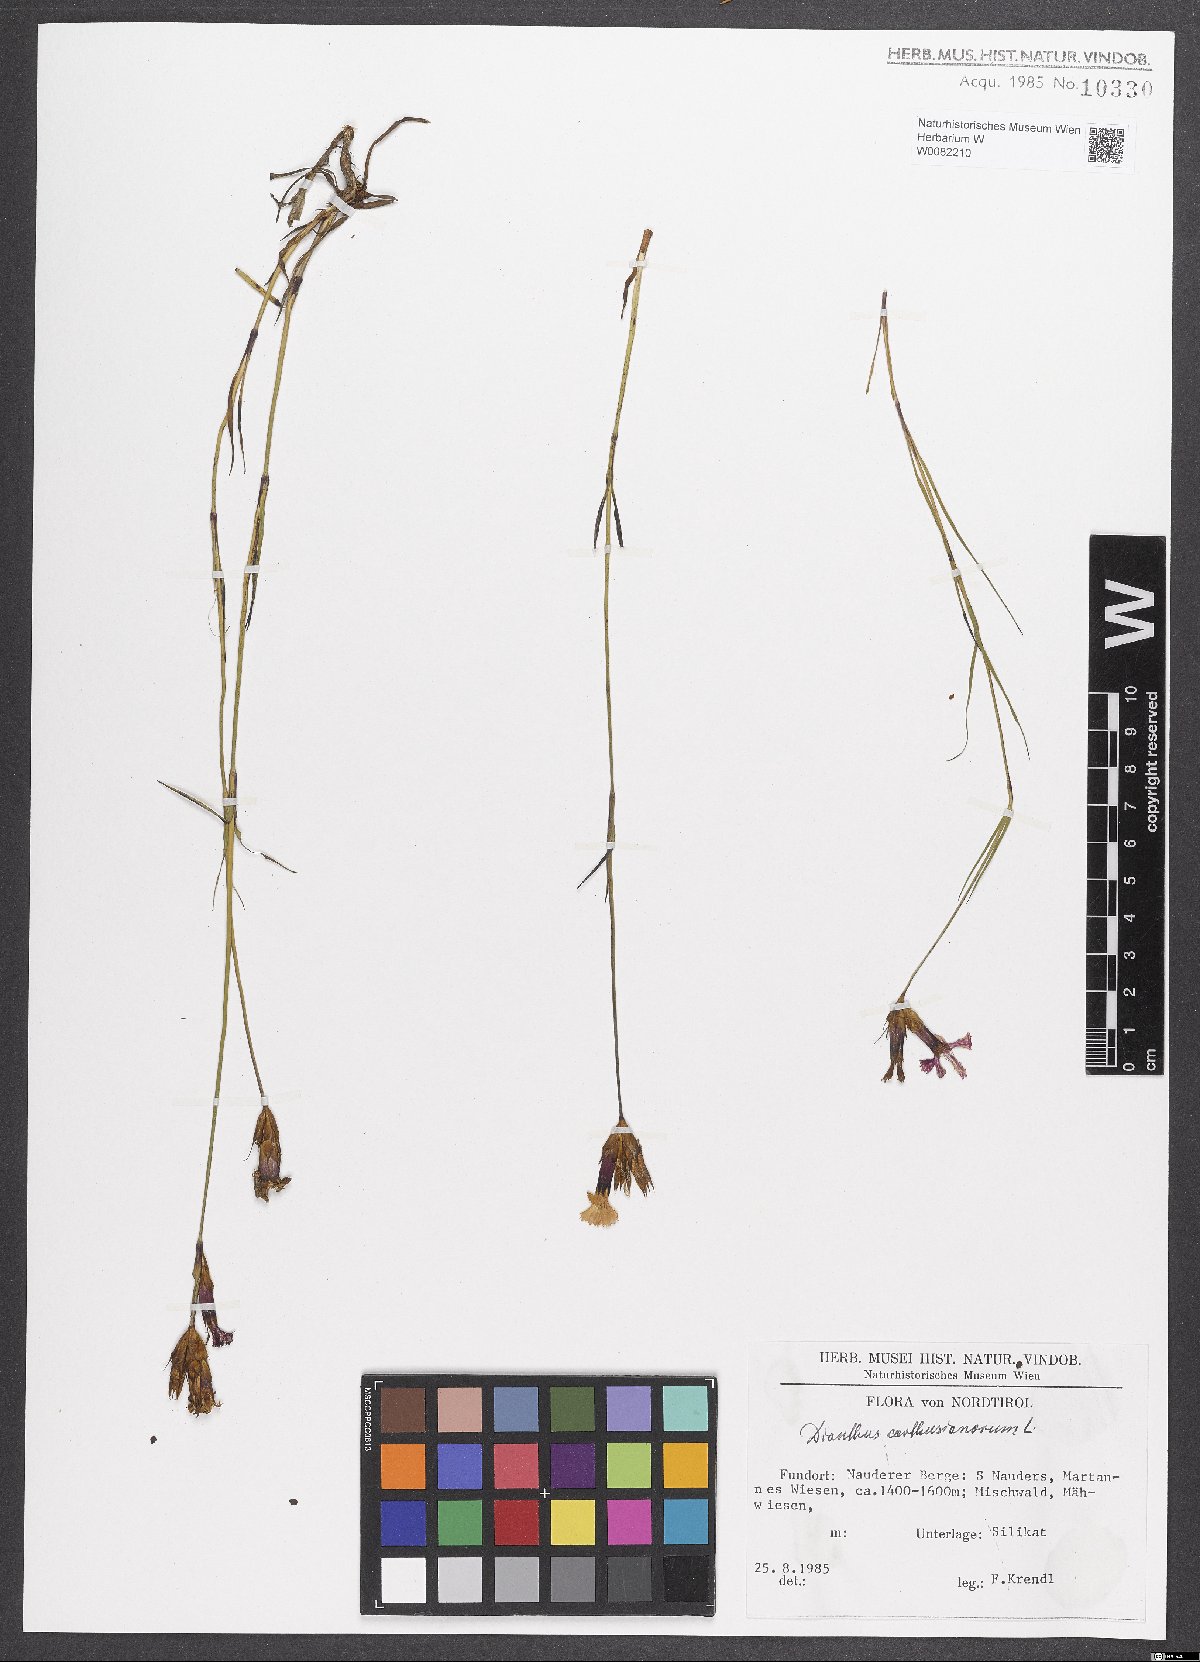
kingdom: Plantae
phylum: Tracheophyta
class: Magnoliopsida
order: Caryophyllales
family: Caryophyllaceae
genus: Dianthus
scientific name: Dianthus carthusianorum
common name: Carthusian pink
